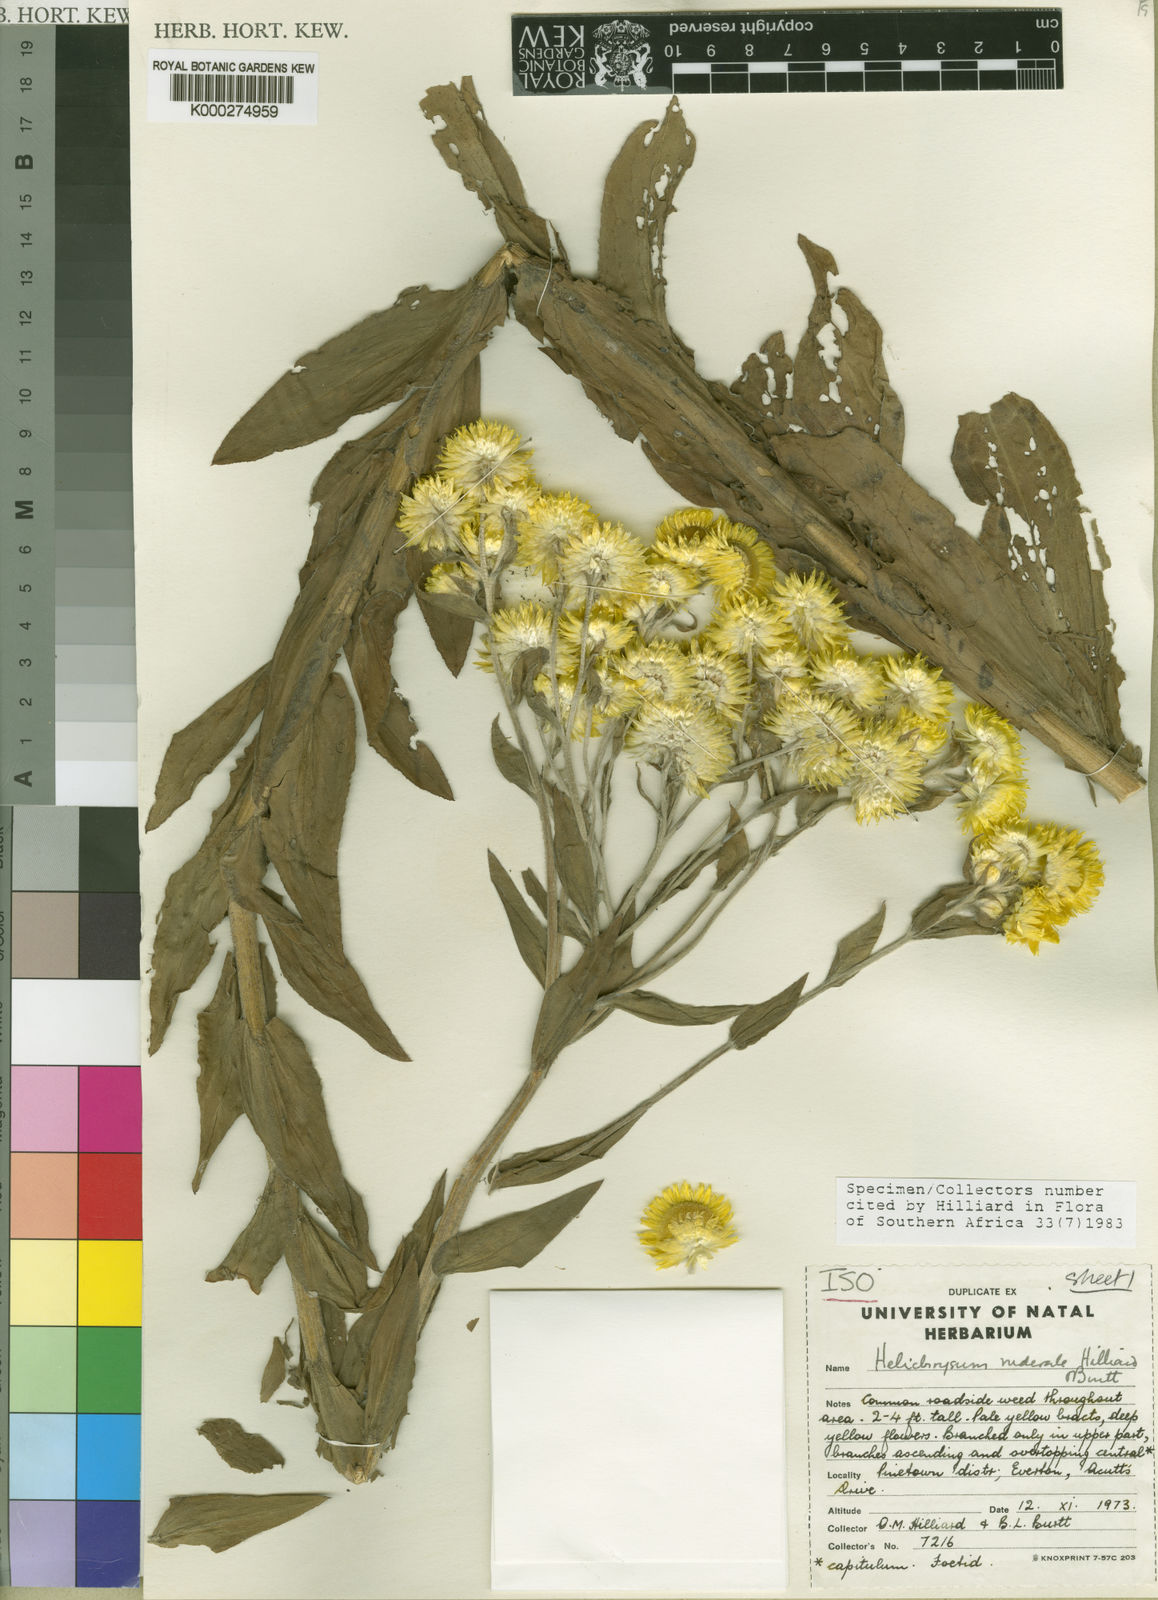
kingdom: Plantae
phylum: Tracheophyta
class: Magnoliopsida
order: Asterales
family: Asteraceae
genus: Helichrysum
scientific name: Helichrysum ruderale
